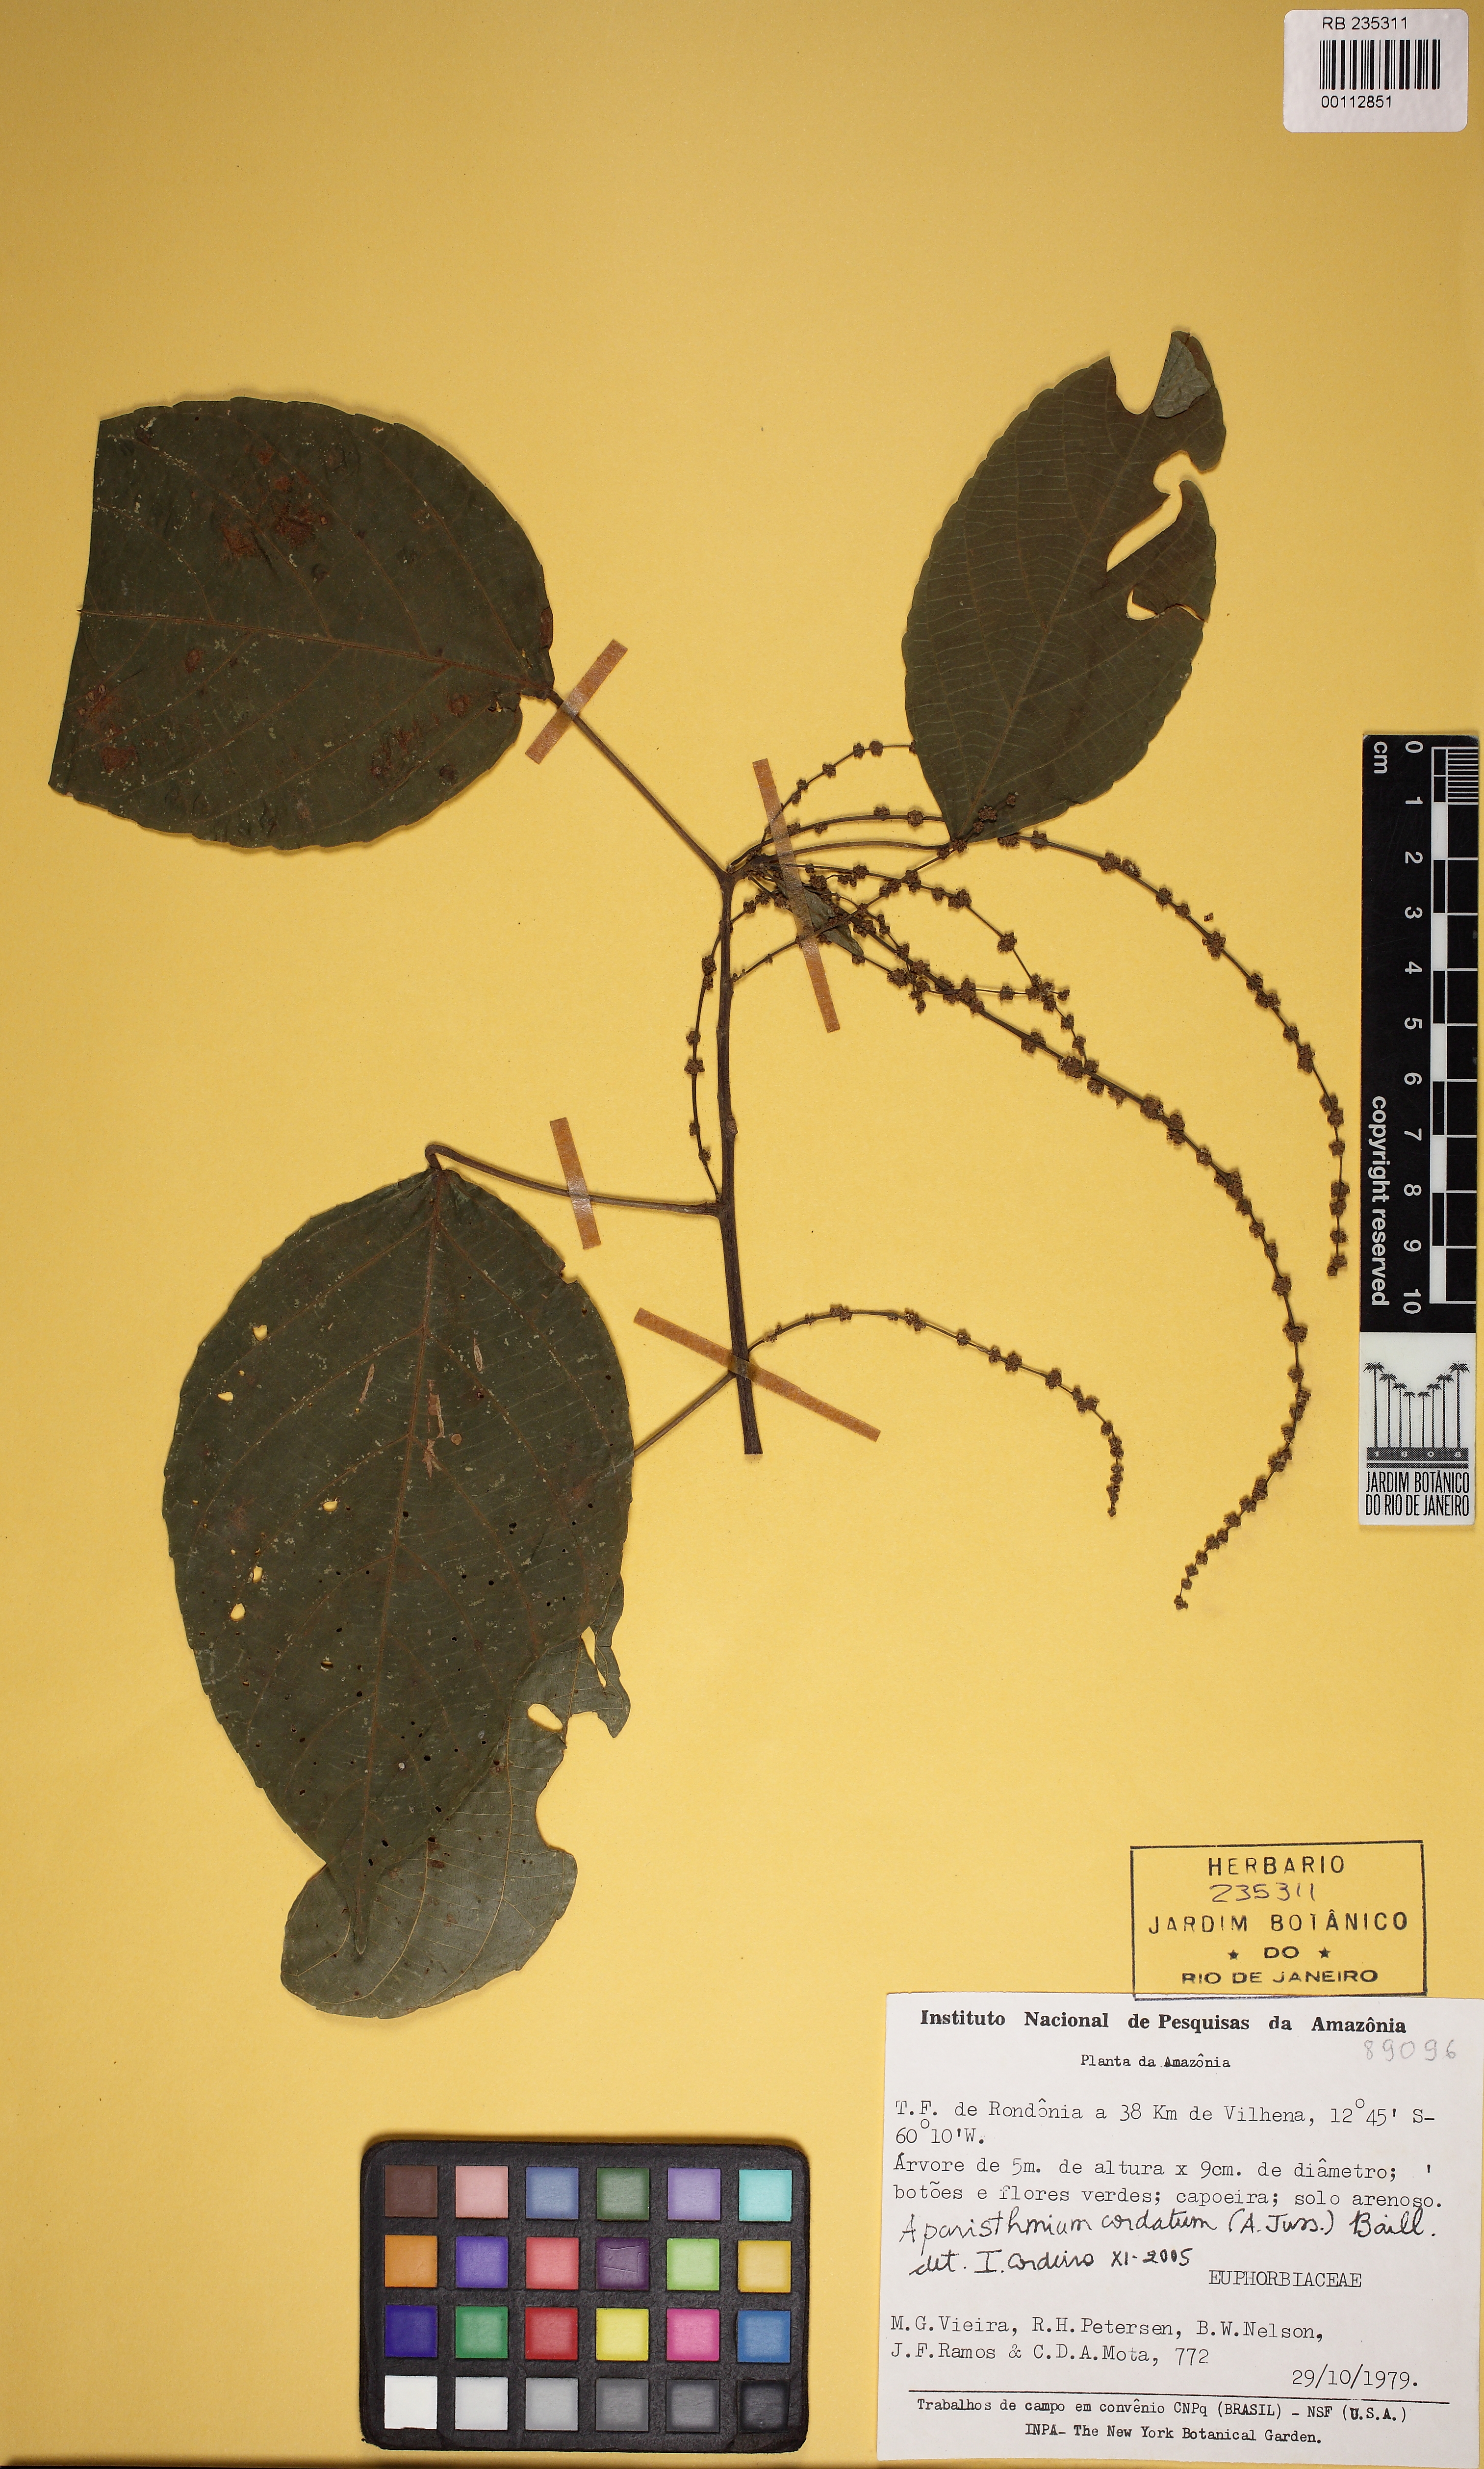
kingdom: Plantae
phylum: Tracheophyta
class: Magnoliopsida
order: Malpighiales
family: Euphorbiaceae
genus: Aparisthmium
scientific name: Aparisthmium cordatum
